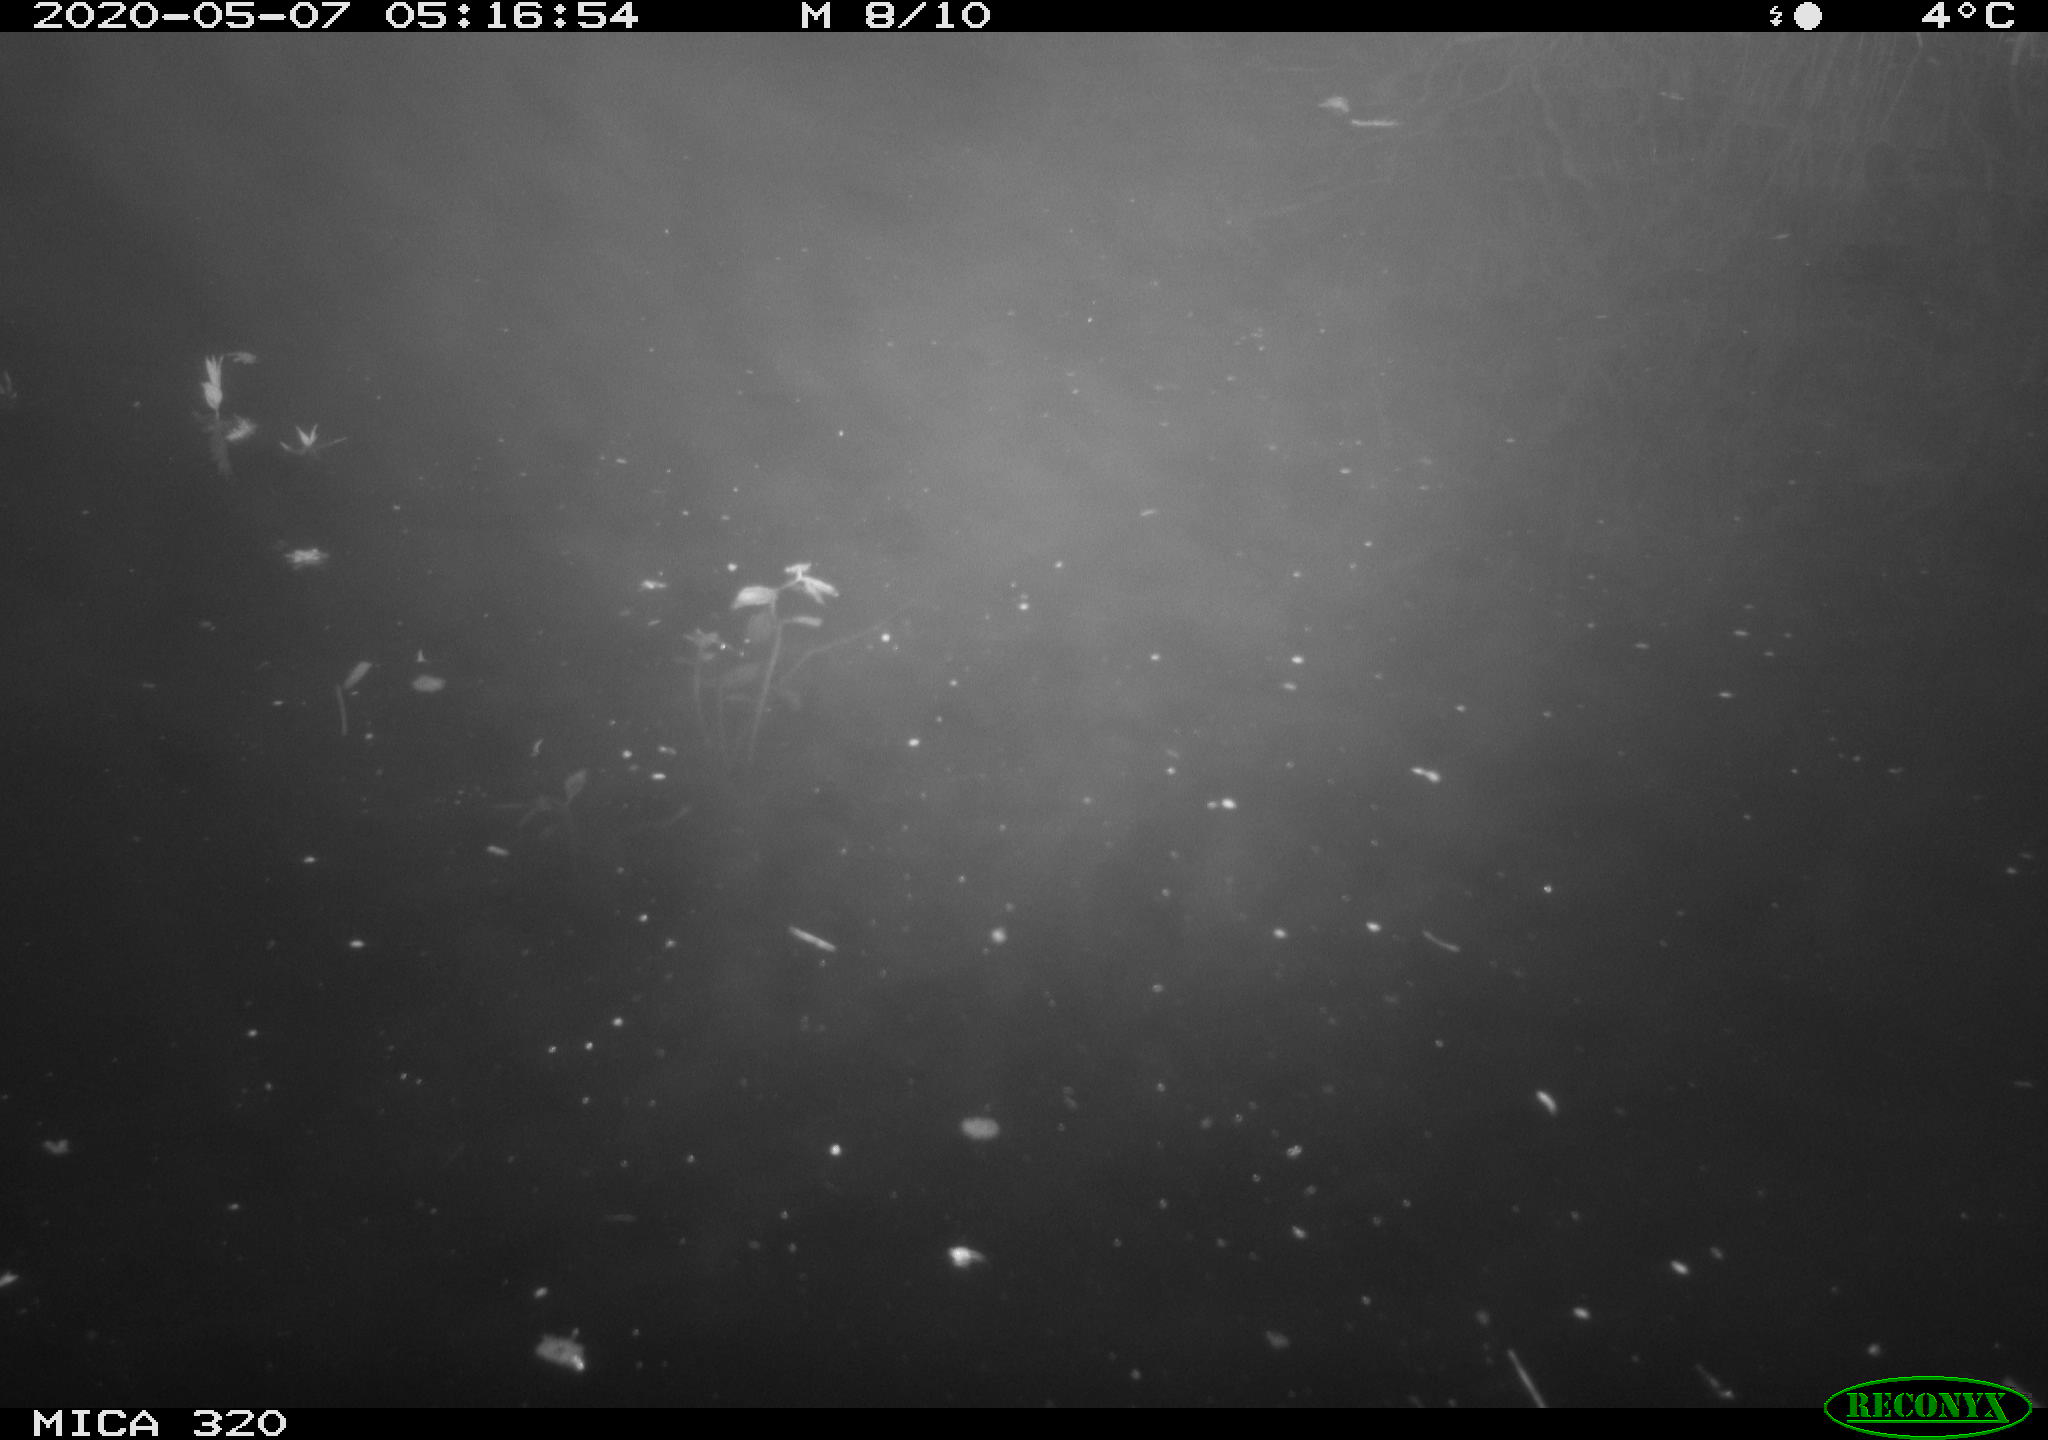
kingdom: Animalia
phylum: Chordata
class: Aves
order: Anseriformes
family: Anatidae
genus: Anas
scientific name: Anas platyrhynchos
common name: Mallard
